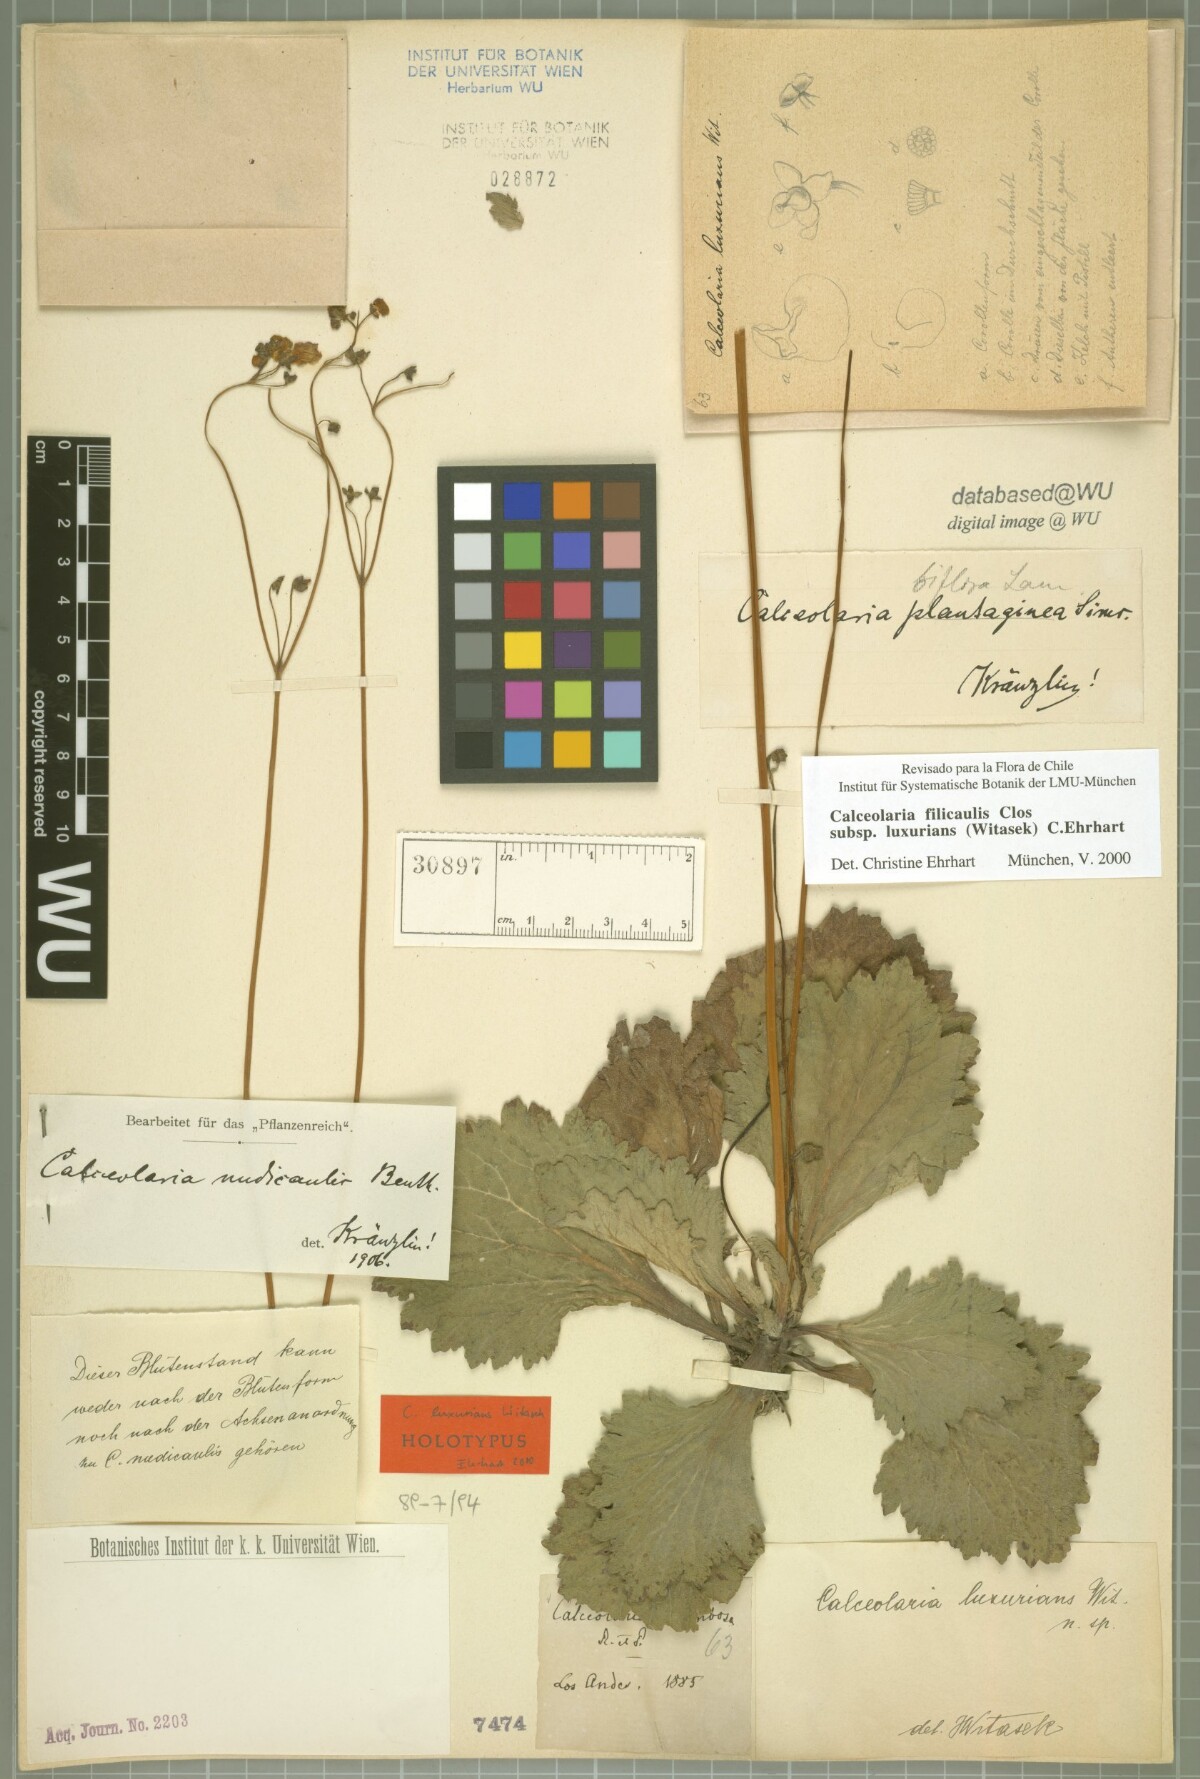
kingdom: Plantae
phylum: Tracheophyta
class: Magnoliopsida
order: Lamiales
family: Calceolariaceae
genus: Calceolaria
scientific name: Calceolaria filicaulis
